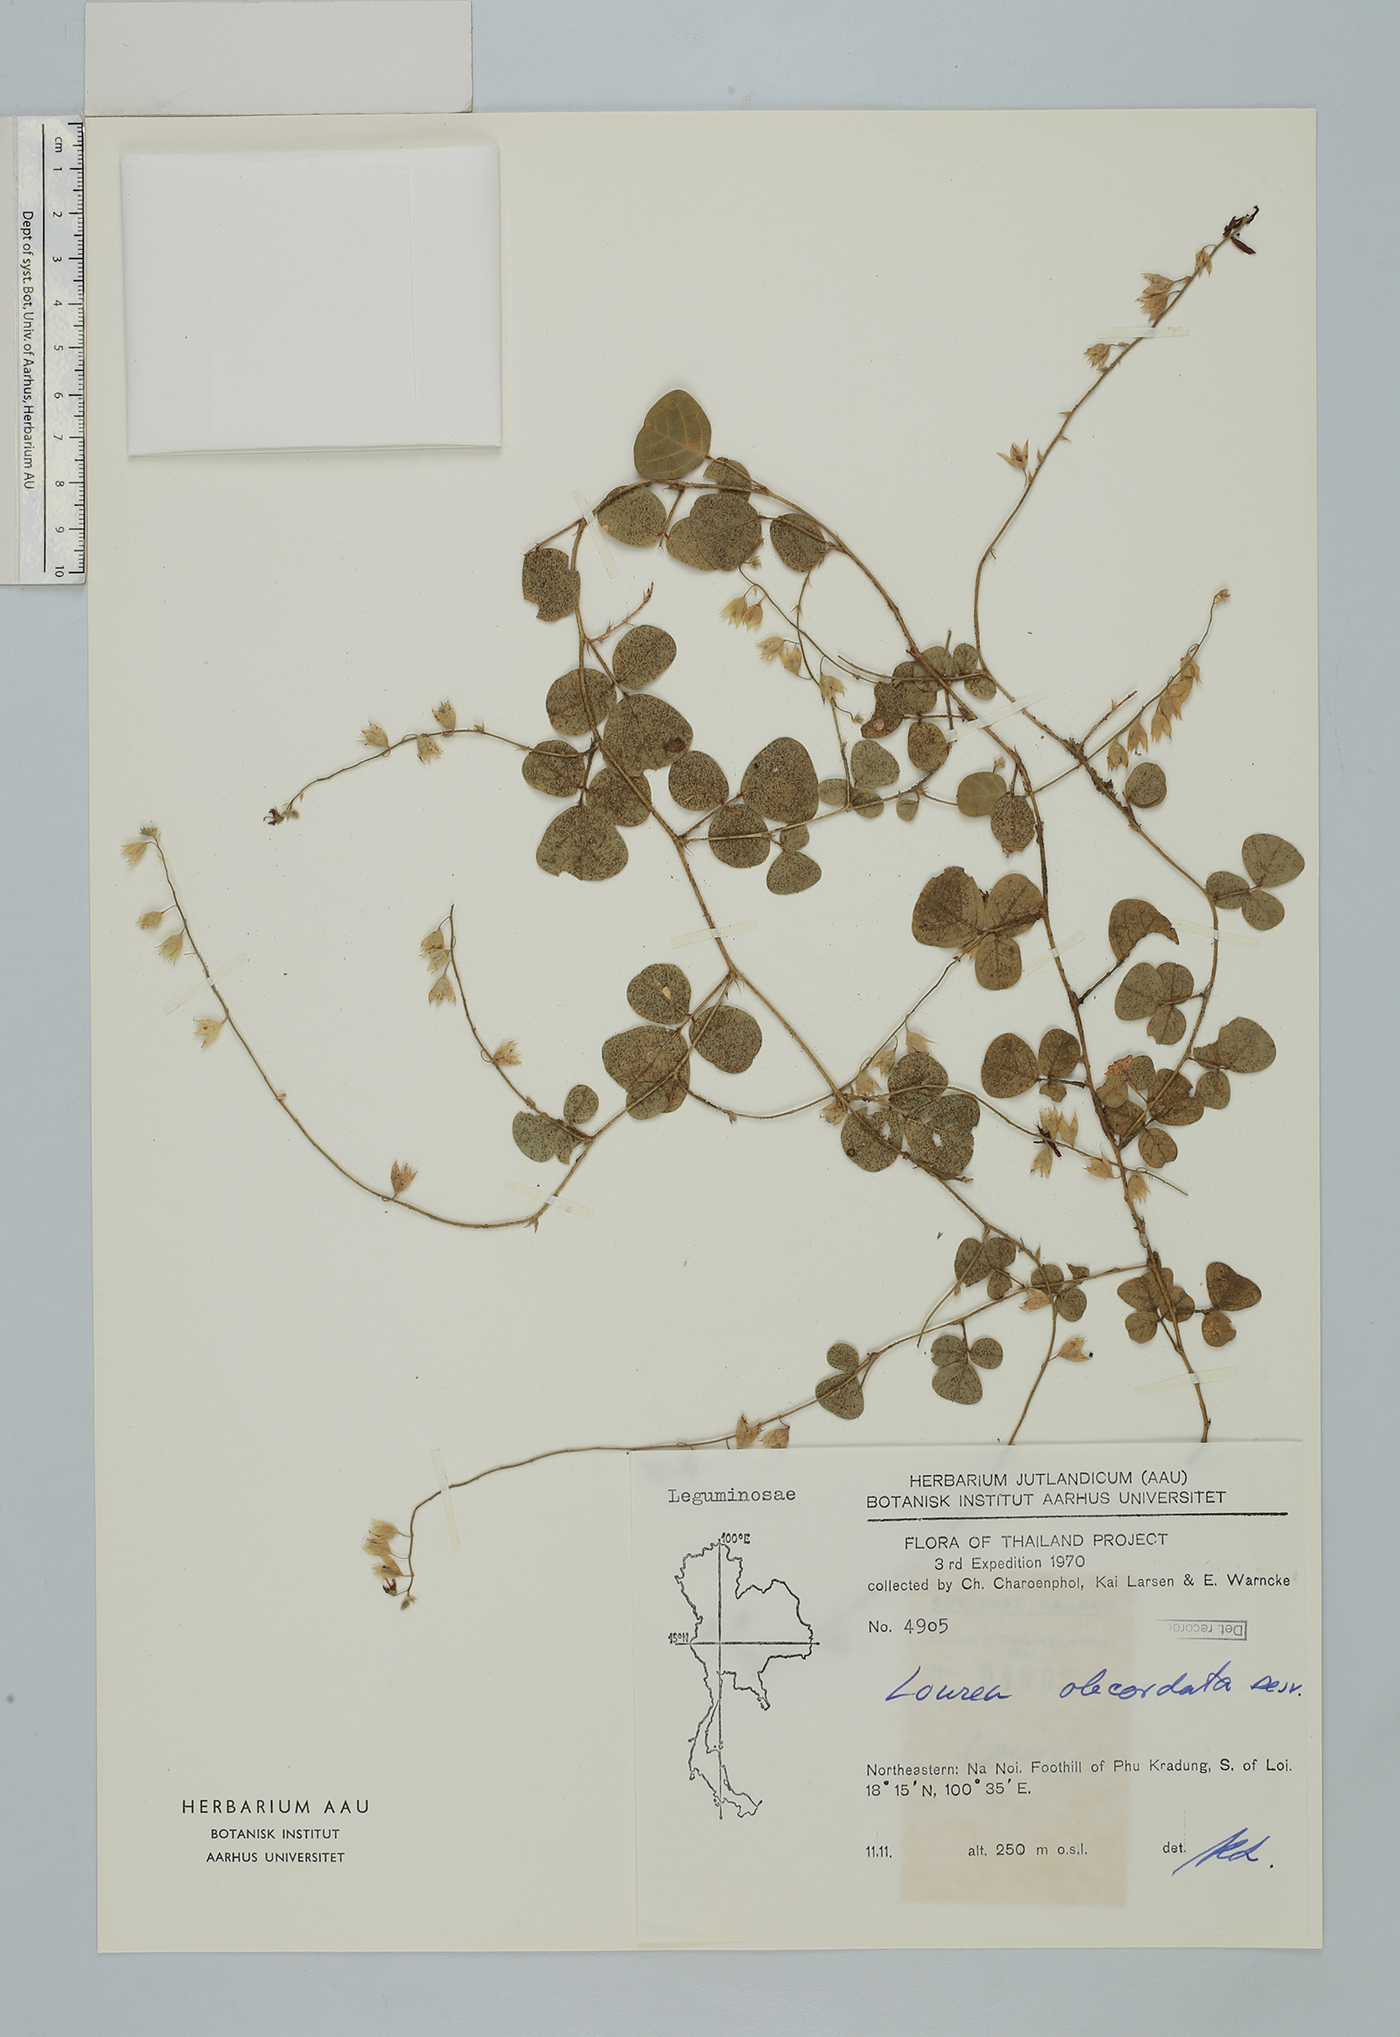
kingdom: Plantae
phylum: Tracheophyta
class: Magnoliopsida
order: Fabales
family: Fabaceae
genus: Christia
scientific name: Christia obcordata
